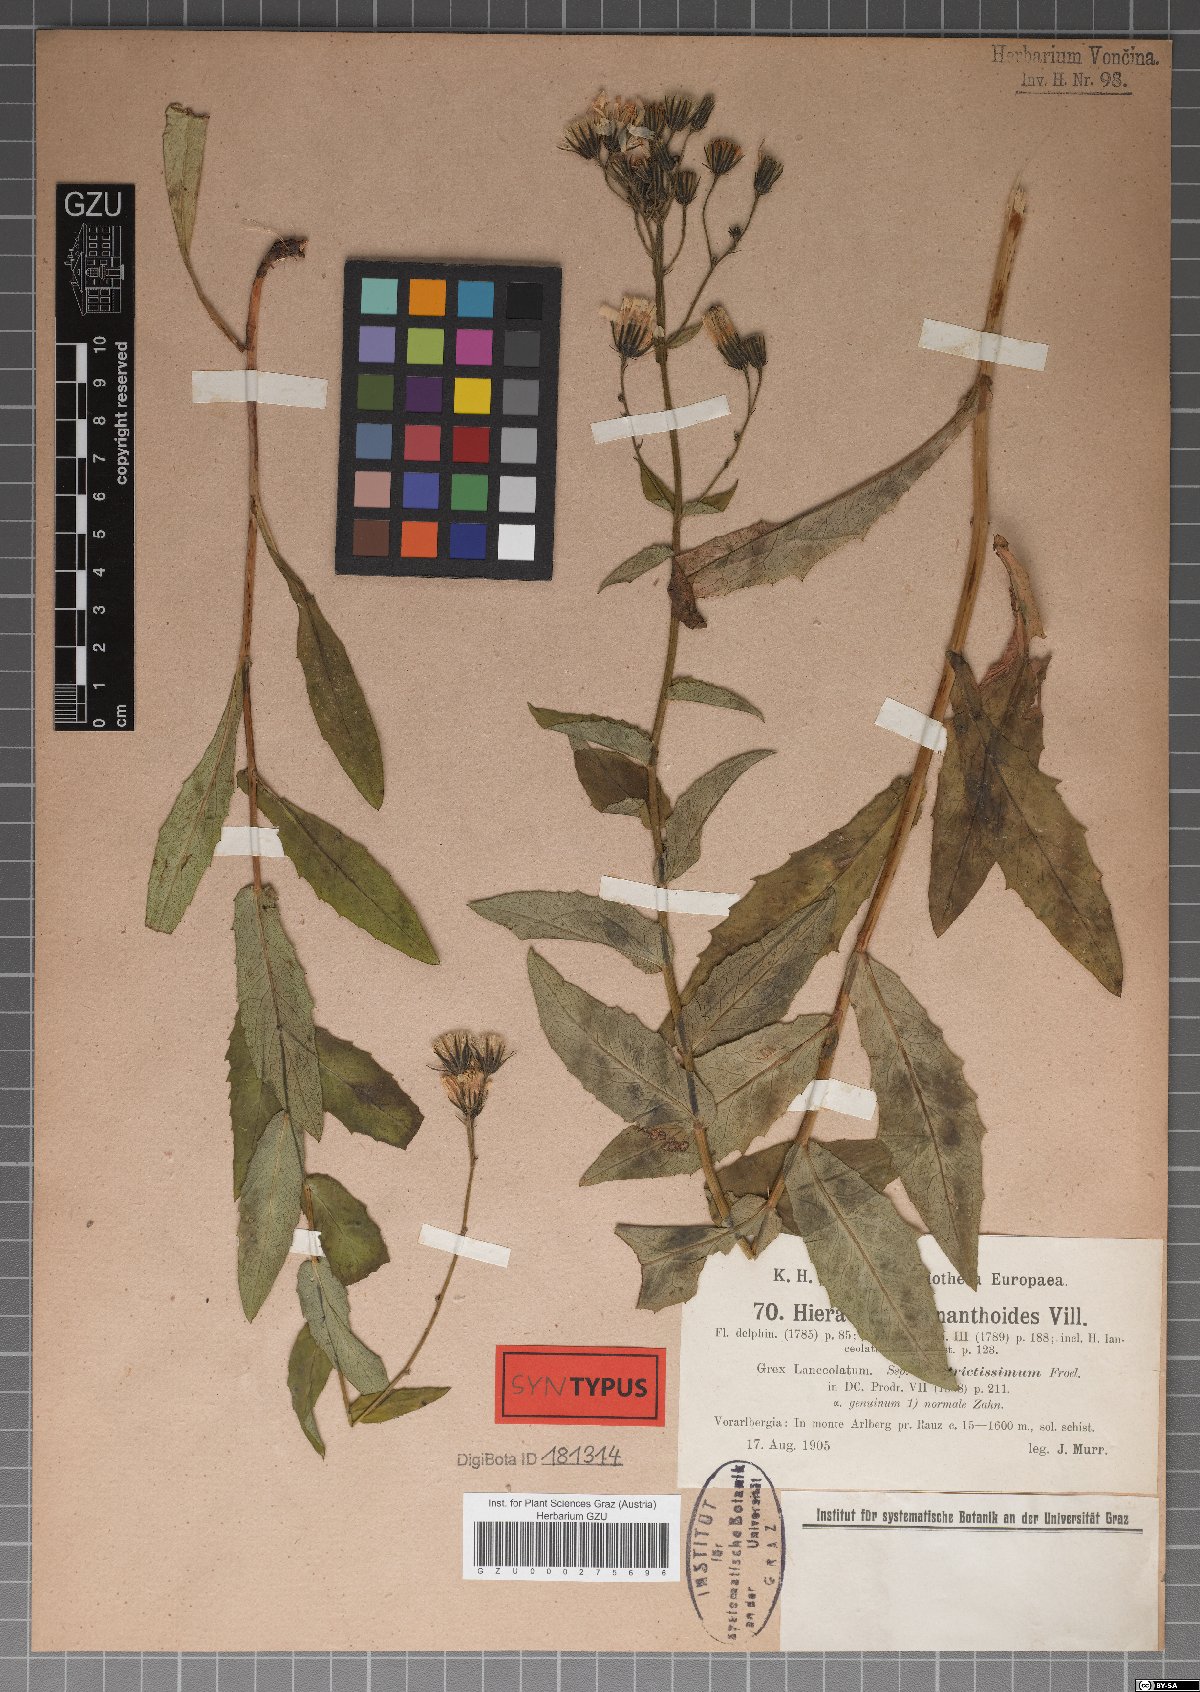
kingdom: Plantae
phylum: Tracheophyta
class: Magnoliopsida
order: Asterales
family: Asteraceae
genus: Hieracium
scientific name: Hieracium prenanthoides
